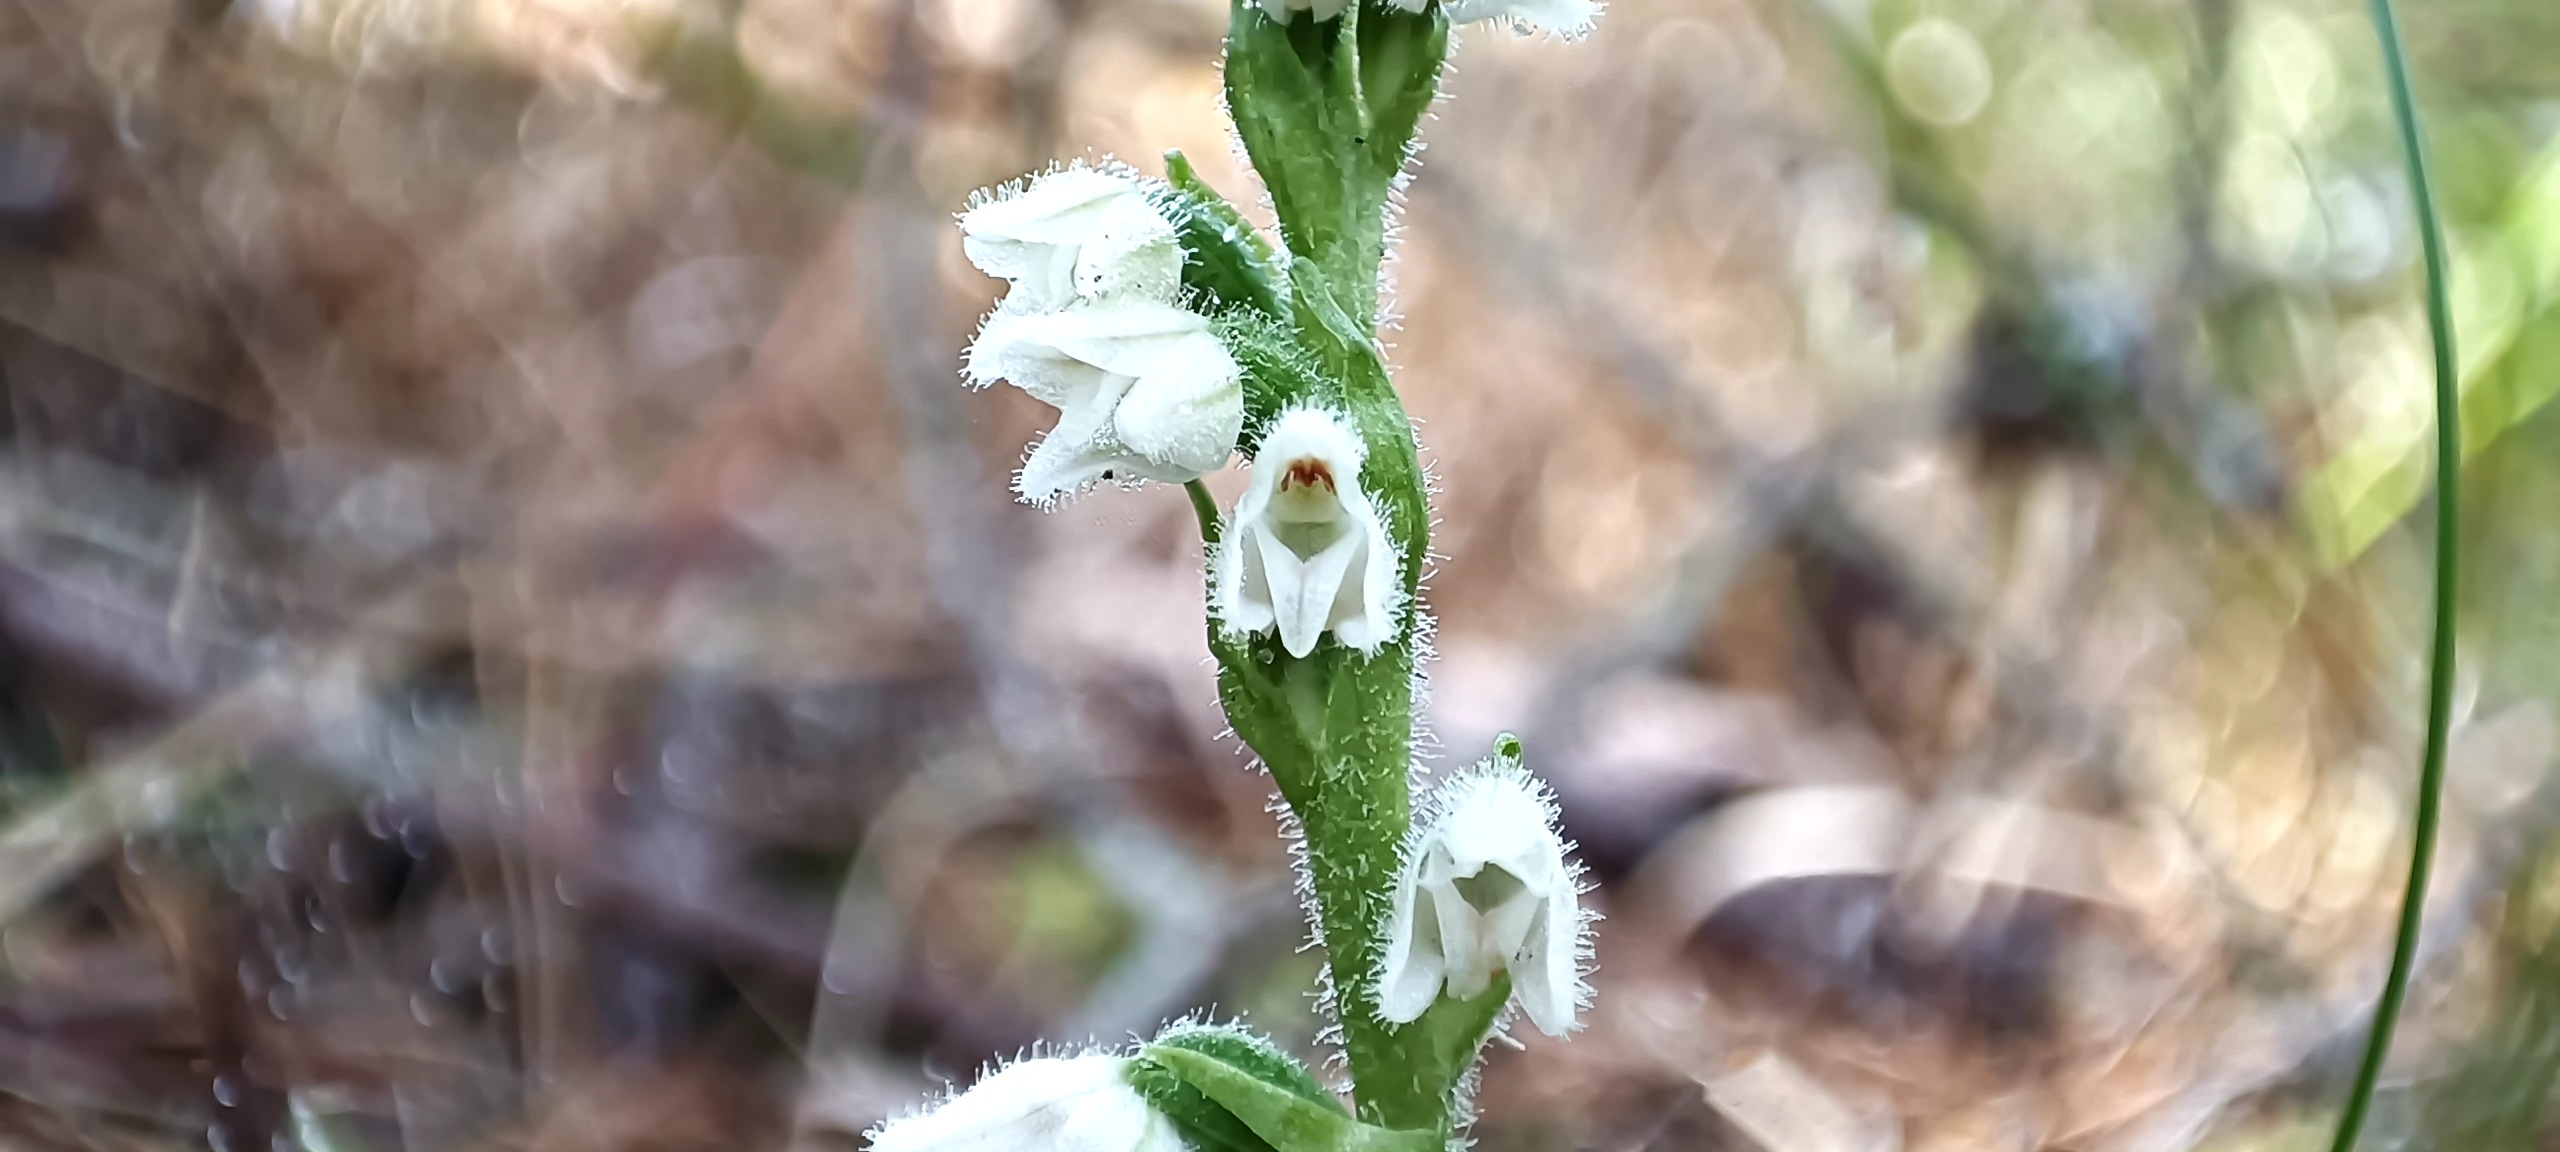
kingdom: Plantae
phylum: Tracheophyta
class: Liliopsida
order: Asparagales
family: Orchidaceae
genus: Goodyera
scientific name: Goodyera repens
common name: Knærod
